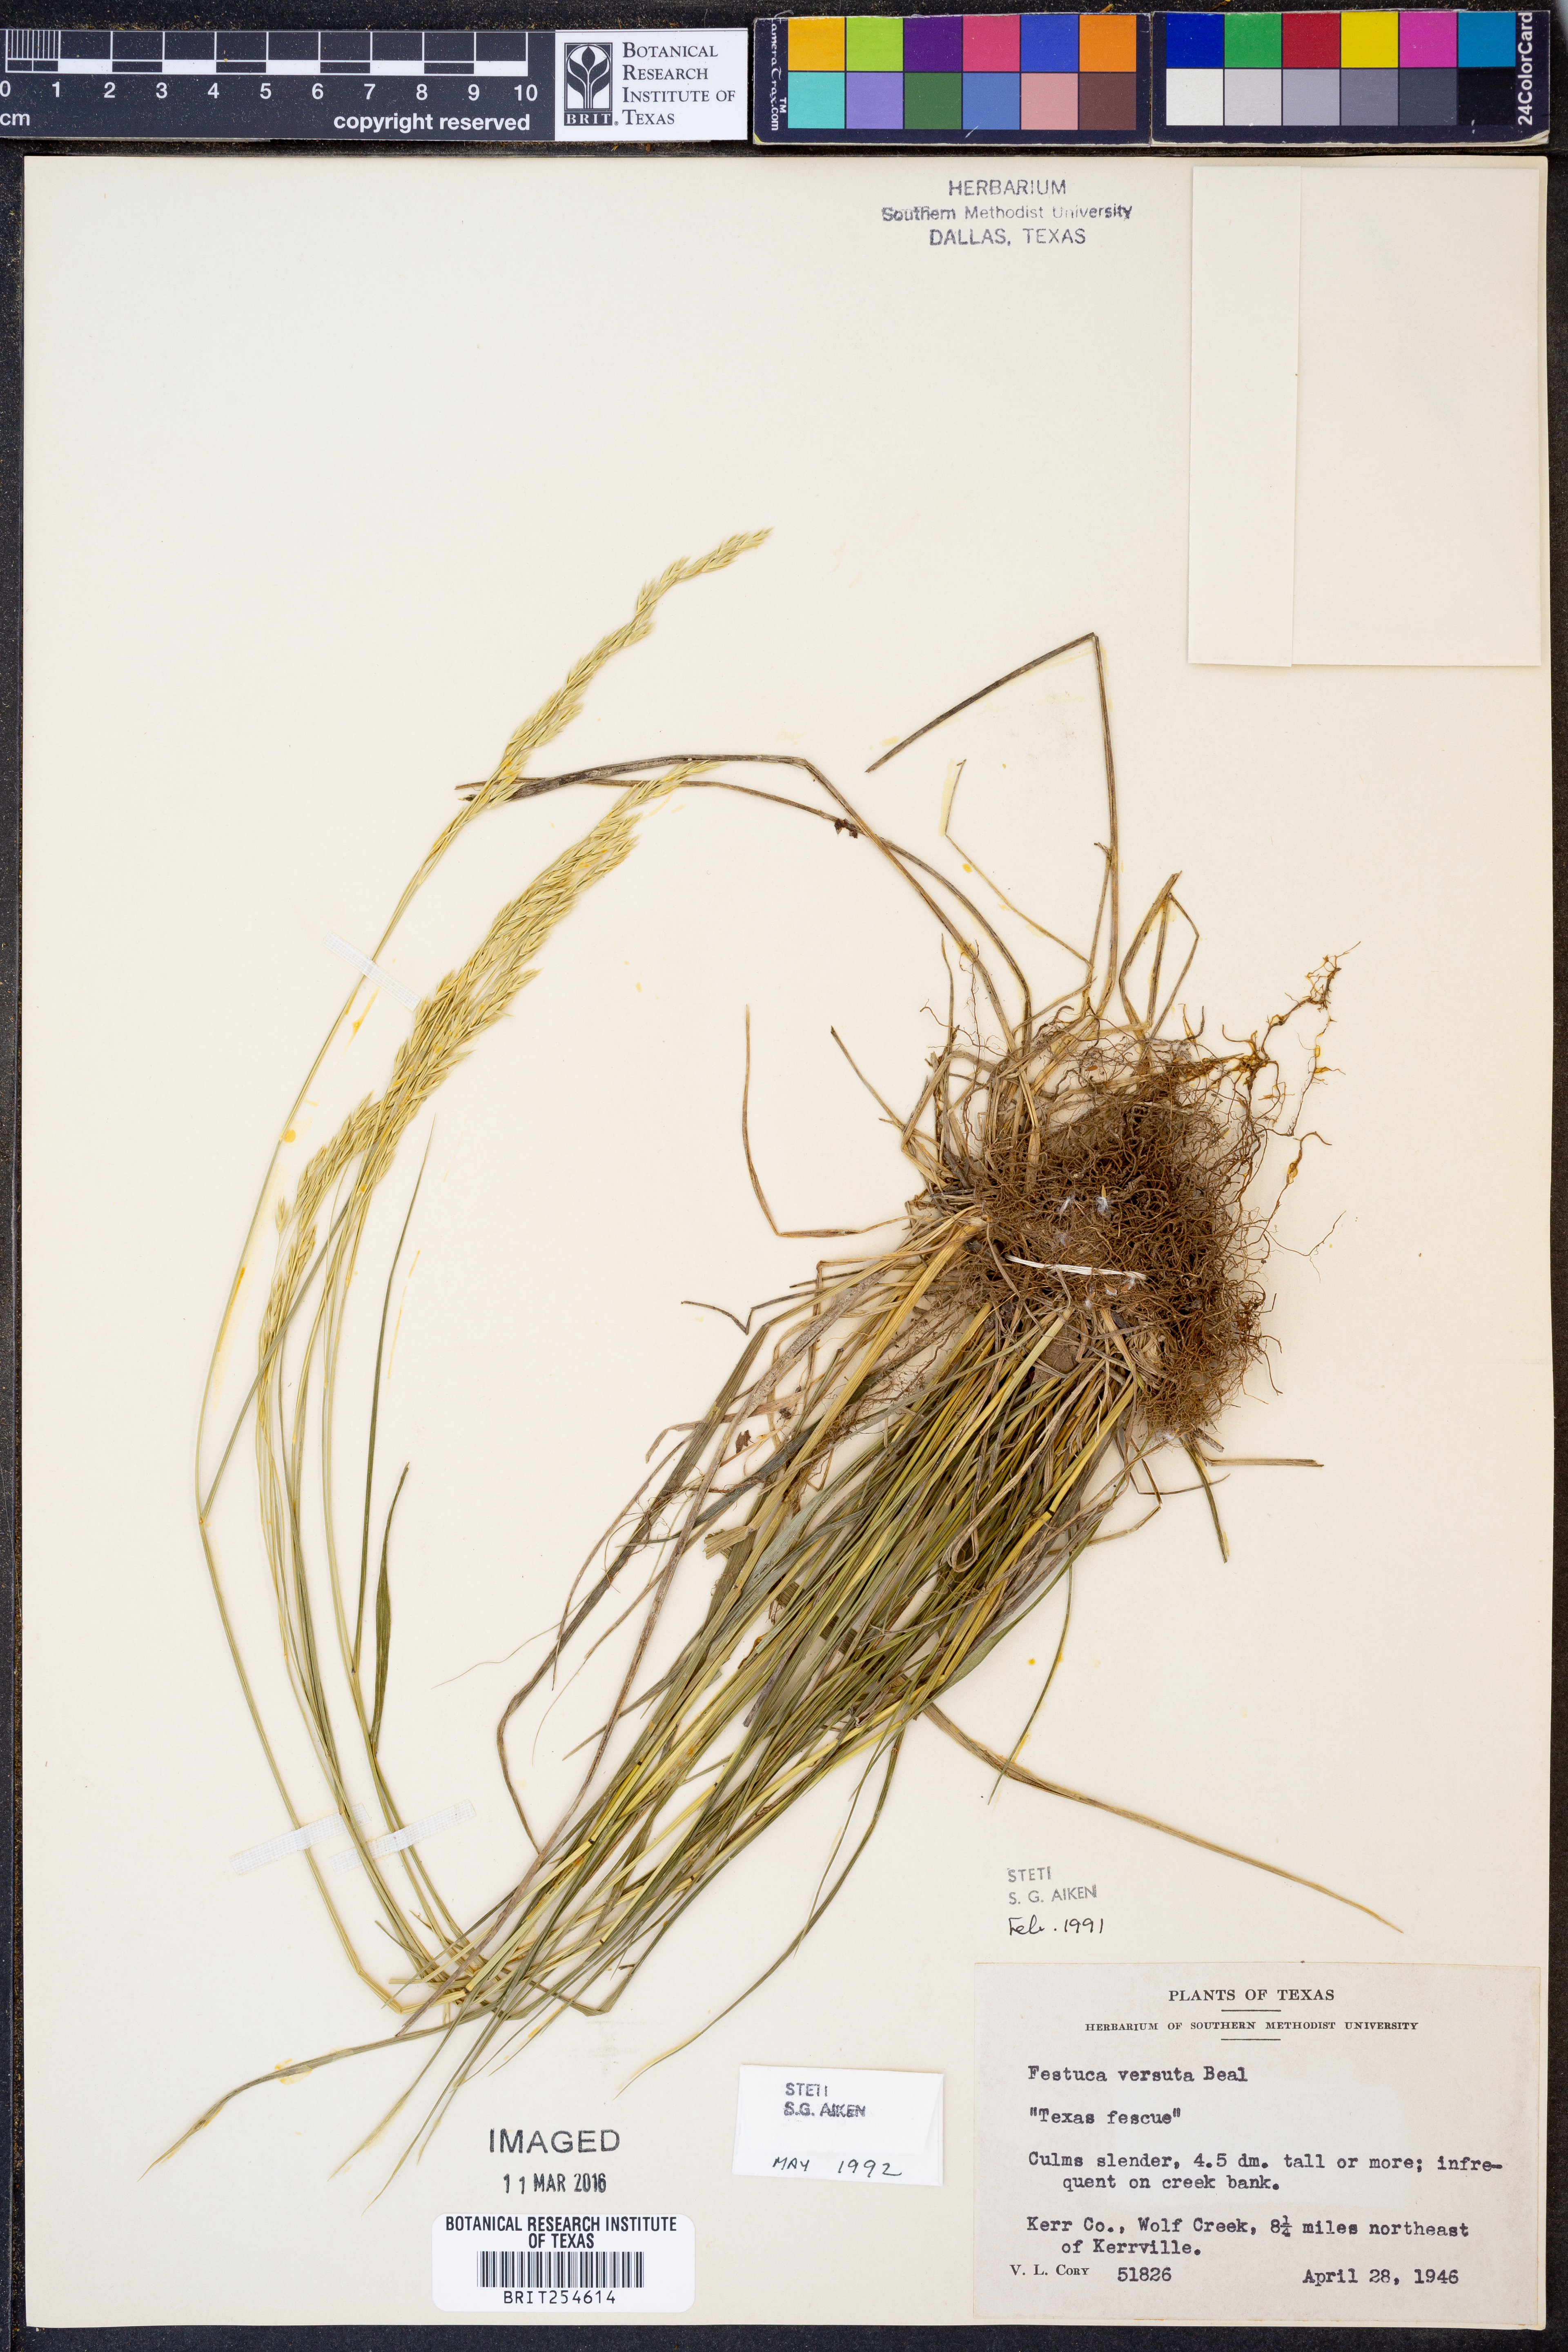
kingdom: Plantae
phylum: Tracheophyta
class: Liliopsida
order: Poales
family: Poaceae
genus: Festuca
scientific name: Festuca versuta
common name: Texas fescue
